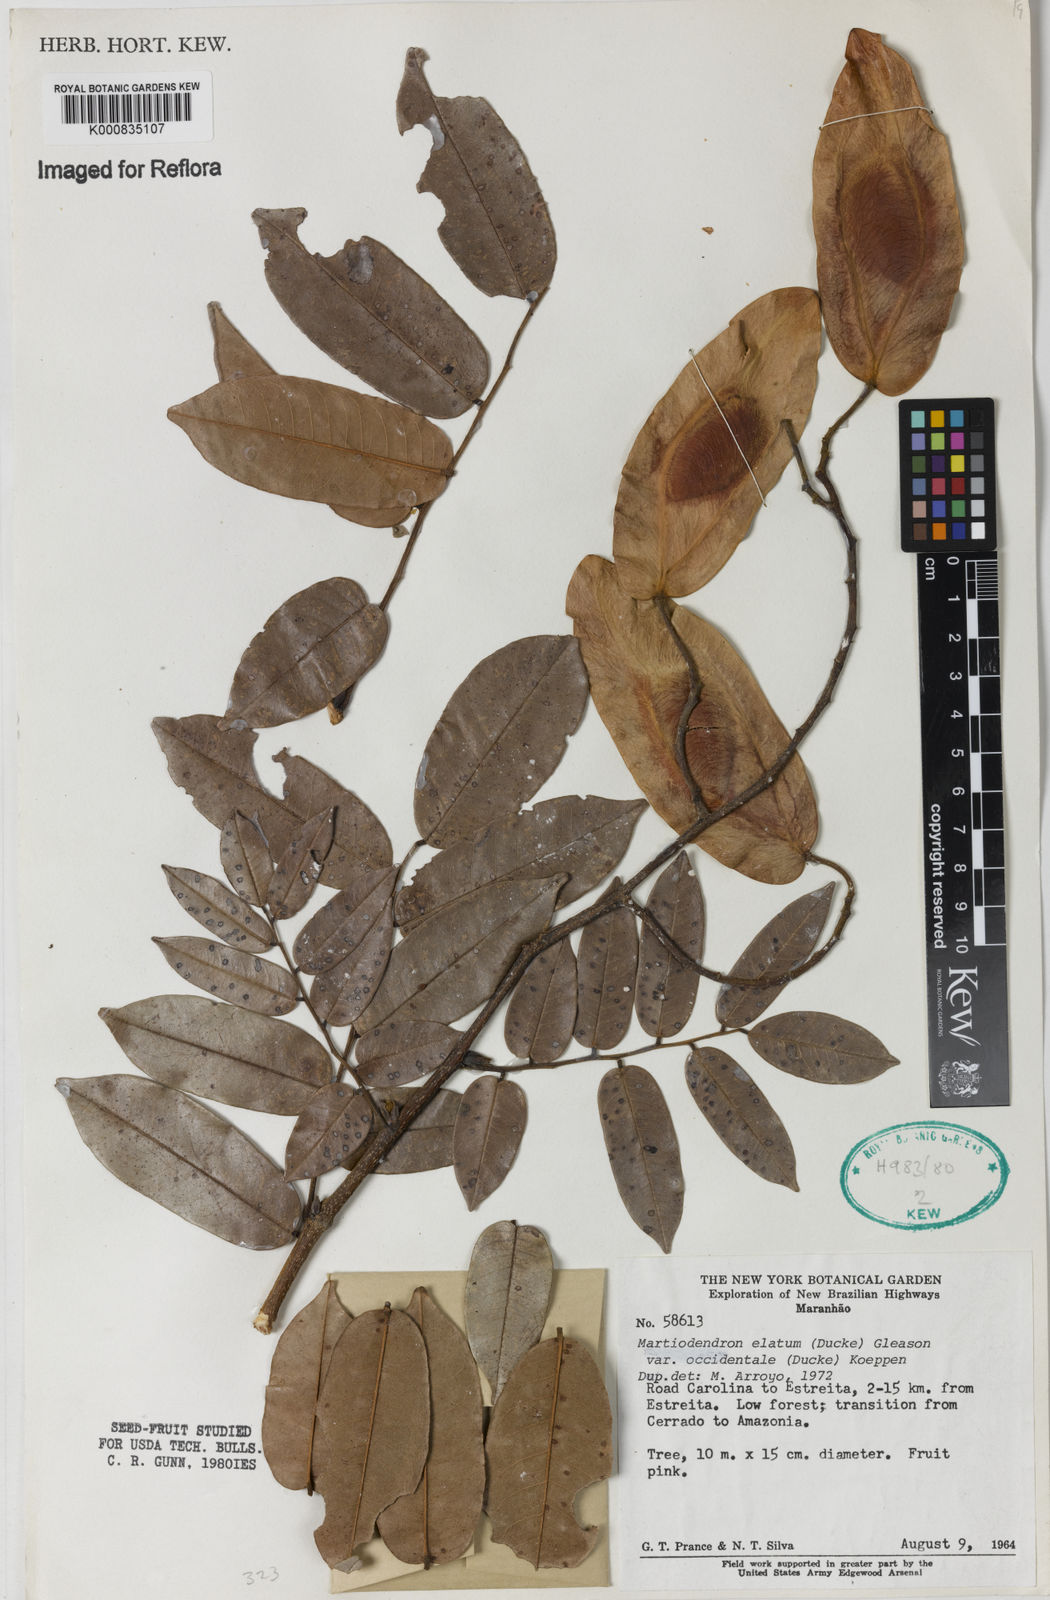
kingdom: Plantae
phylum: Tracheophyta
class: Magnoliopsida
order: Fabales
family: Fabaceae
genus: Martiodendron
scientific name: Martiodendron elatum
